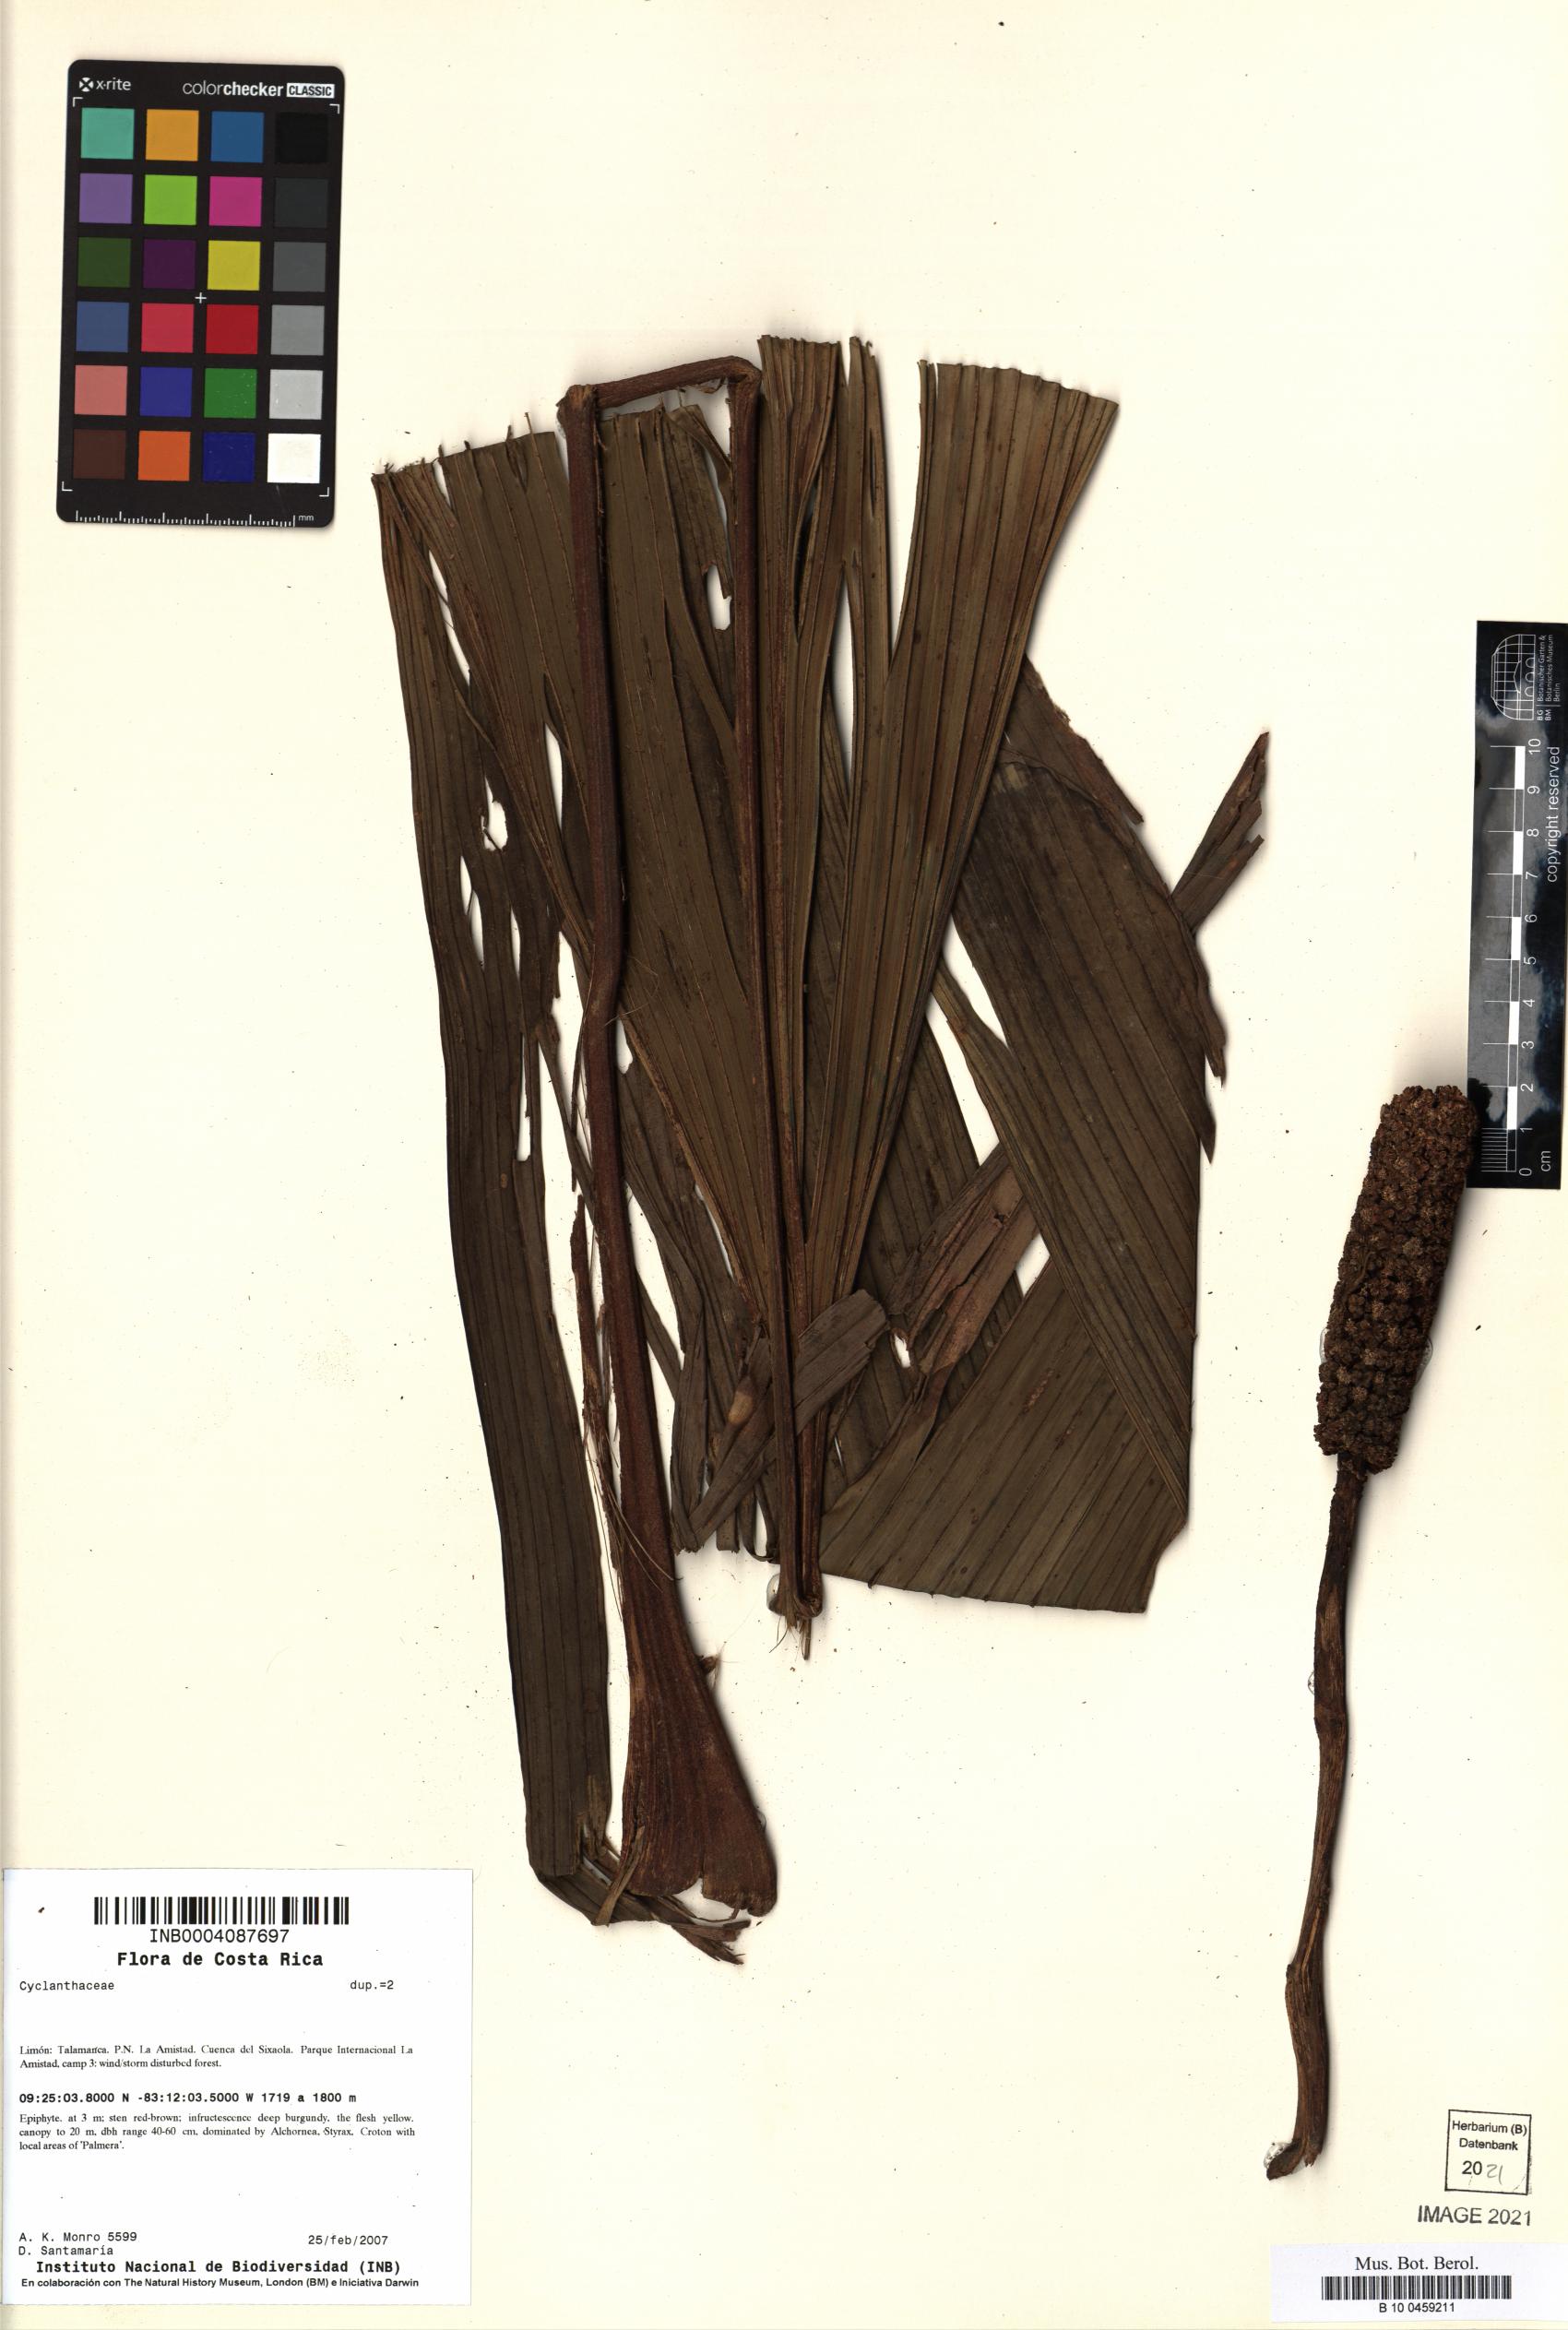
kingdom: Plantae
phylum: Tracheophyta
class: Liliopsida
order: Pandanales
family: Cyclanthaceae
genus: Asplundia
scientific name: Asplundia sanctae-ritae
